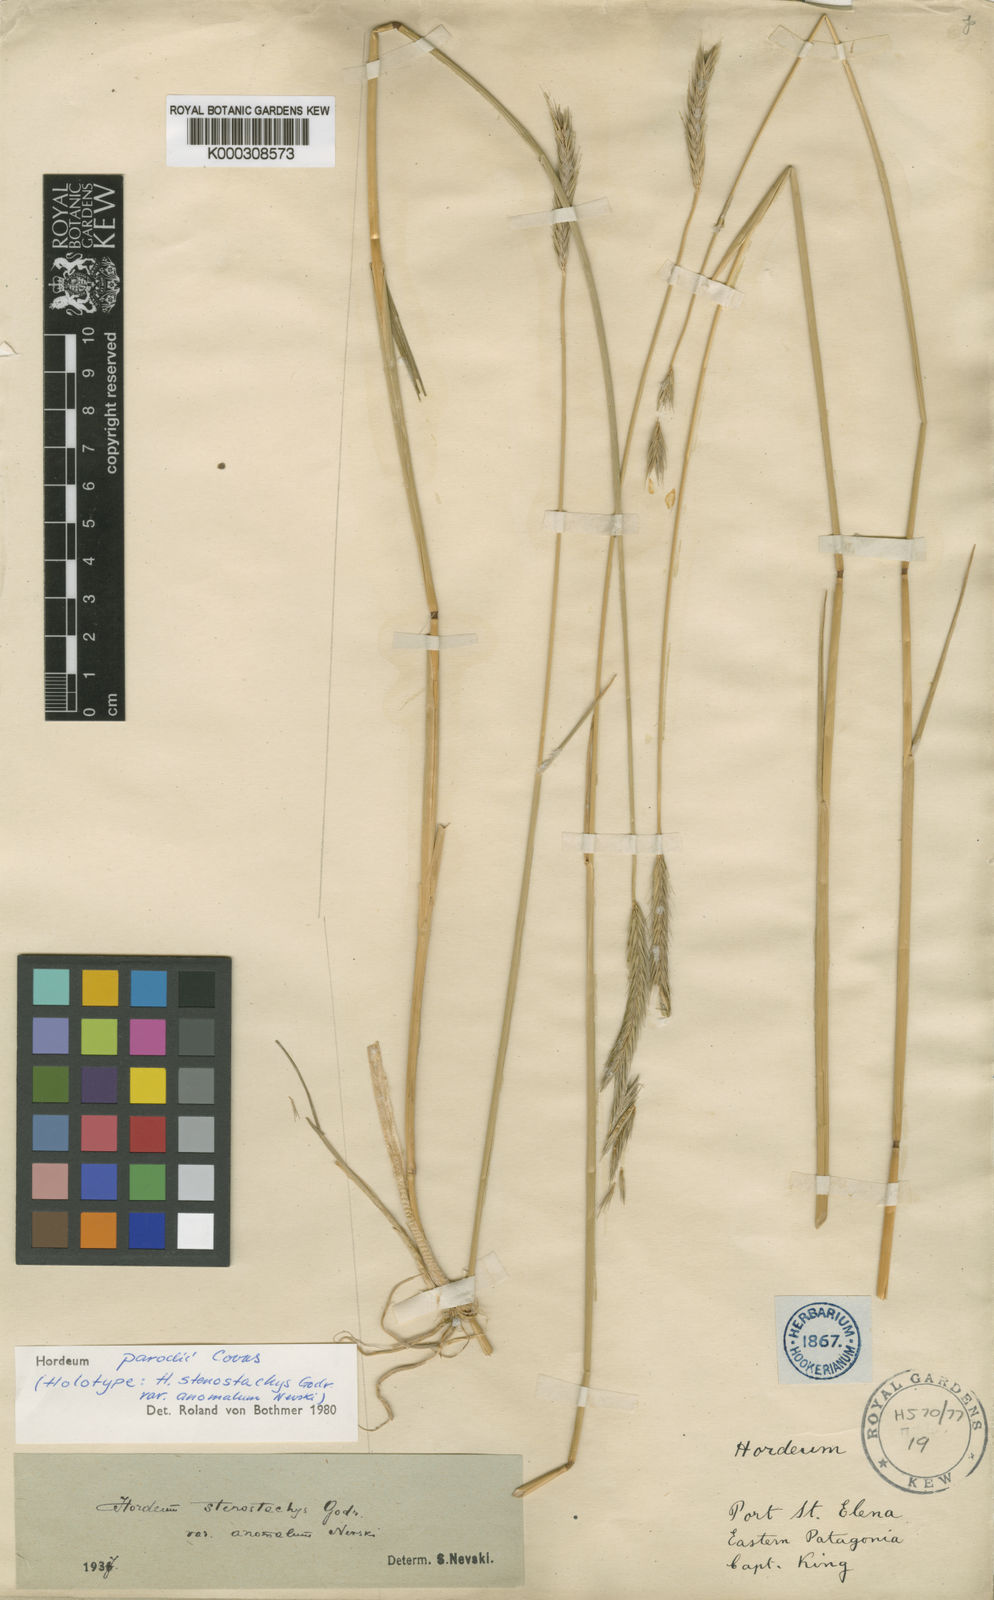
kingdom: Plantae
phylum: Tracheophyta
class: Liliopsida
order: Poales
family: Poaceae
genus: Hordeum
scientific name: Hordeum parodii
